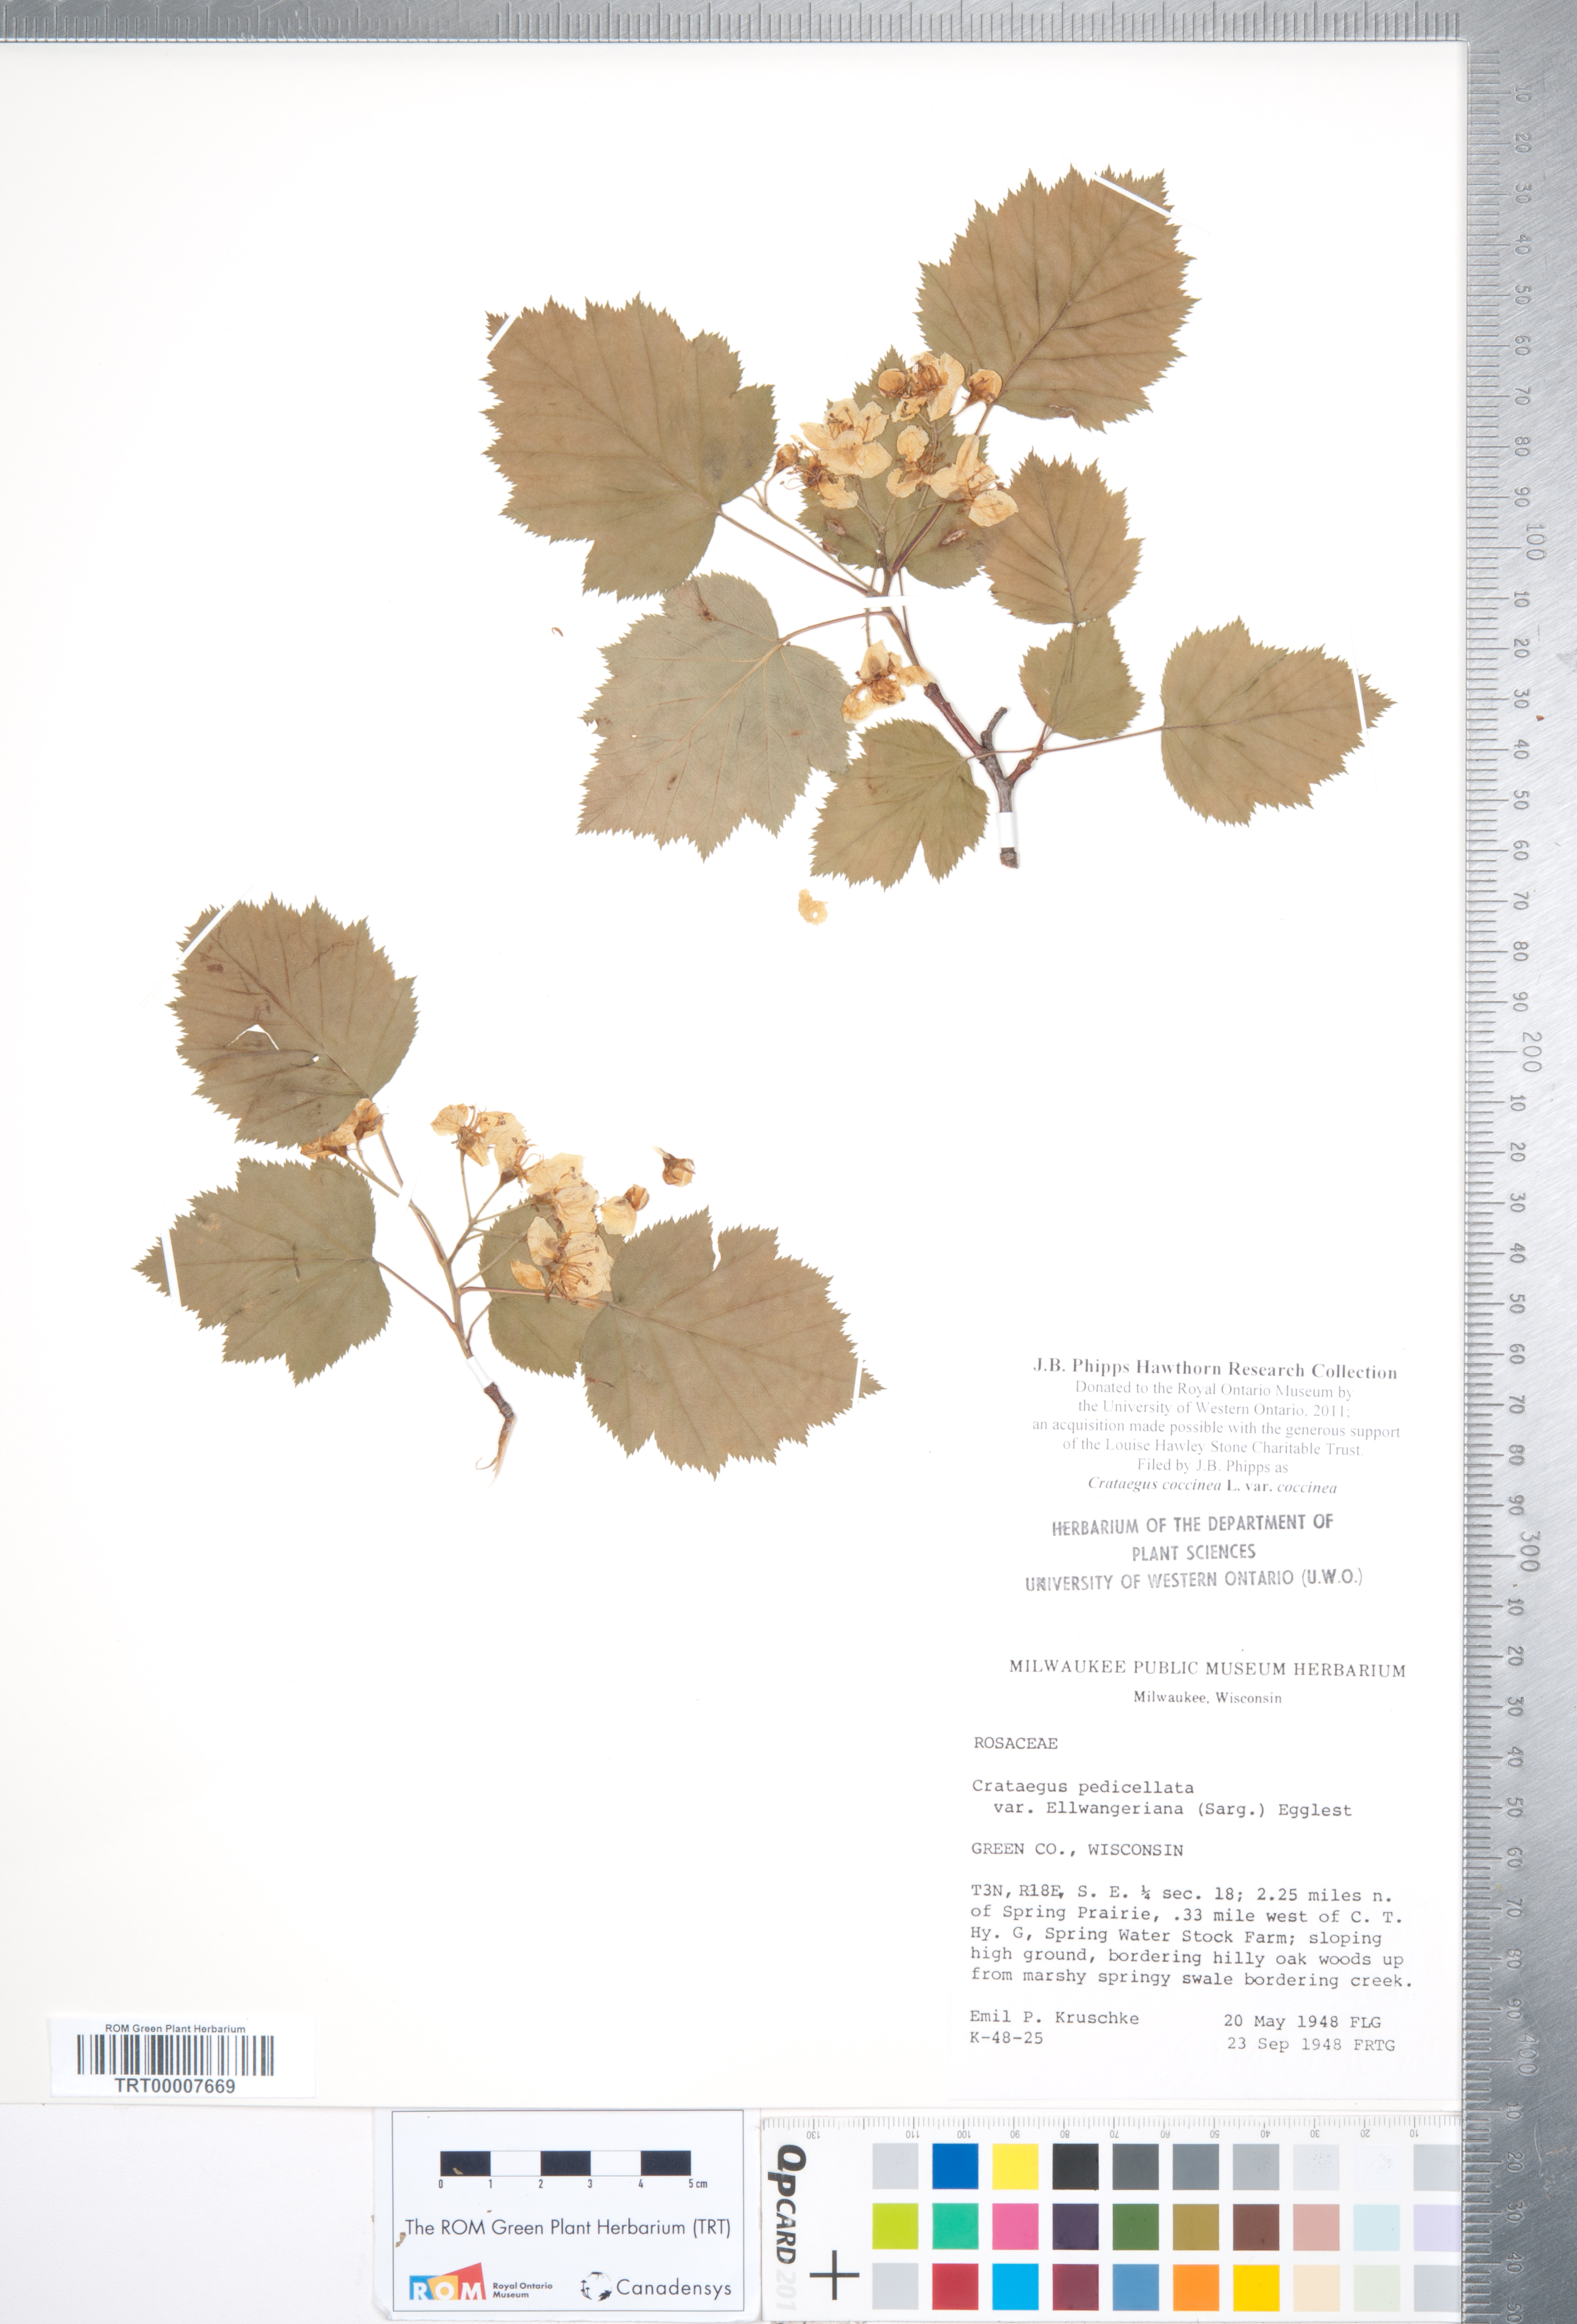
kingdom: Plantae
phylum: Tracheophyta
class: Magnoliopsida
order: Rosales
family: Rosaceae
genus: Crataegus
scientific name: Crataegus coccinea
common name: Scarlet hawthorn
